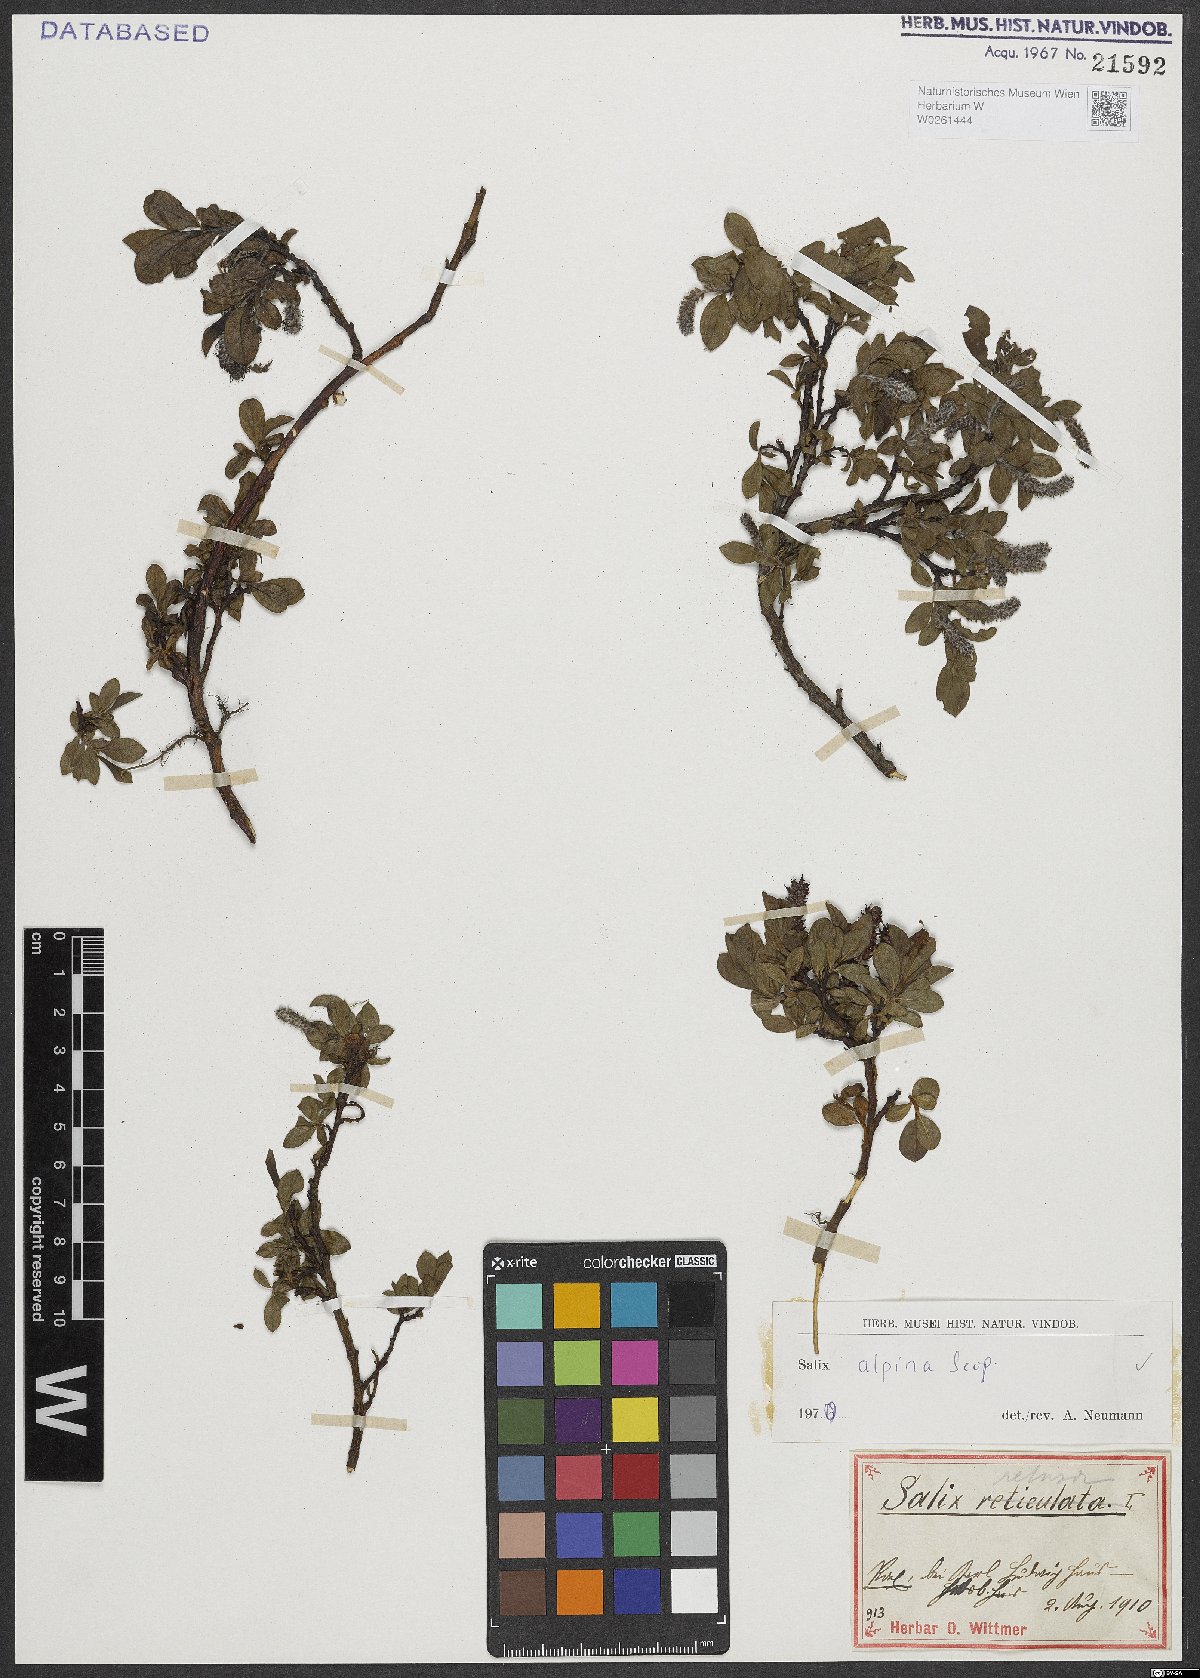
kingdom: Plantae
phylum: Tracheophyta
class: Magnoliopsida
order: Malpighiales
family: Salicaceae
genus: Salix
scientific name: Salix alpina
